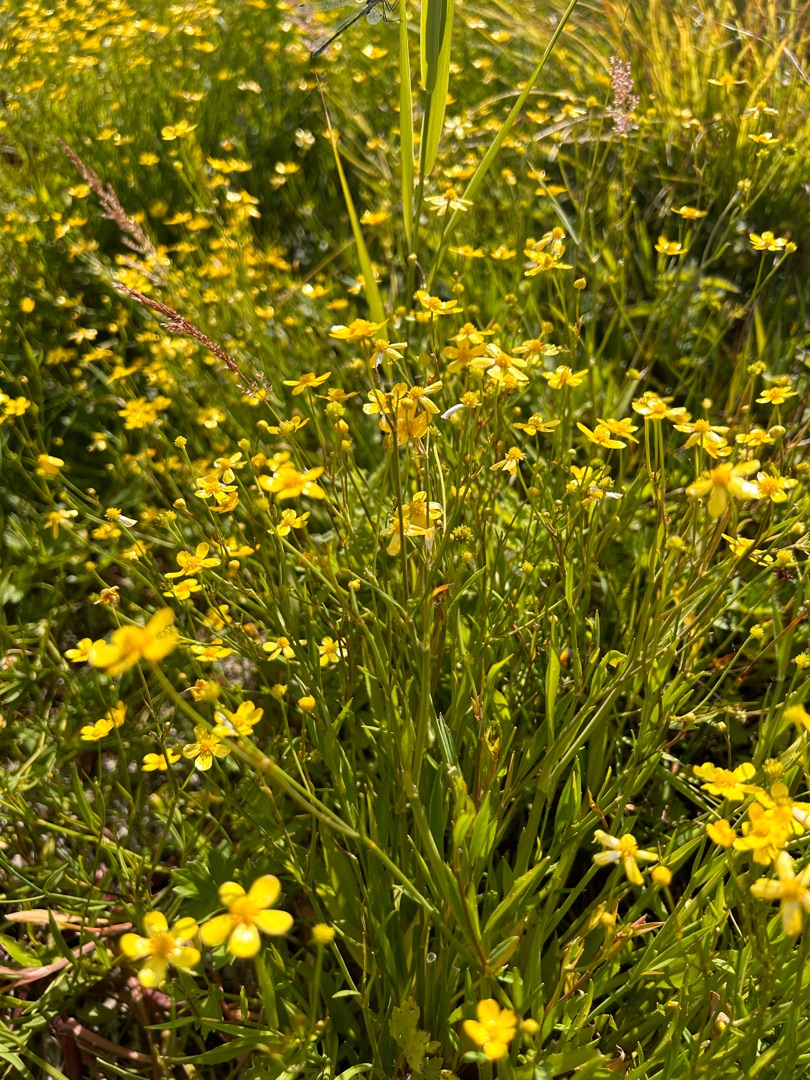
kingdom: Plantae
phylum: Tracheophyta
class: Magnoliopsida
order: Ranunculales
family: Ranunculaceae
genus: Ranunculus
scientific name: Ranunculus flammula
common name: Kær-ranunkel
